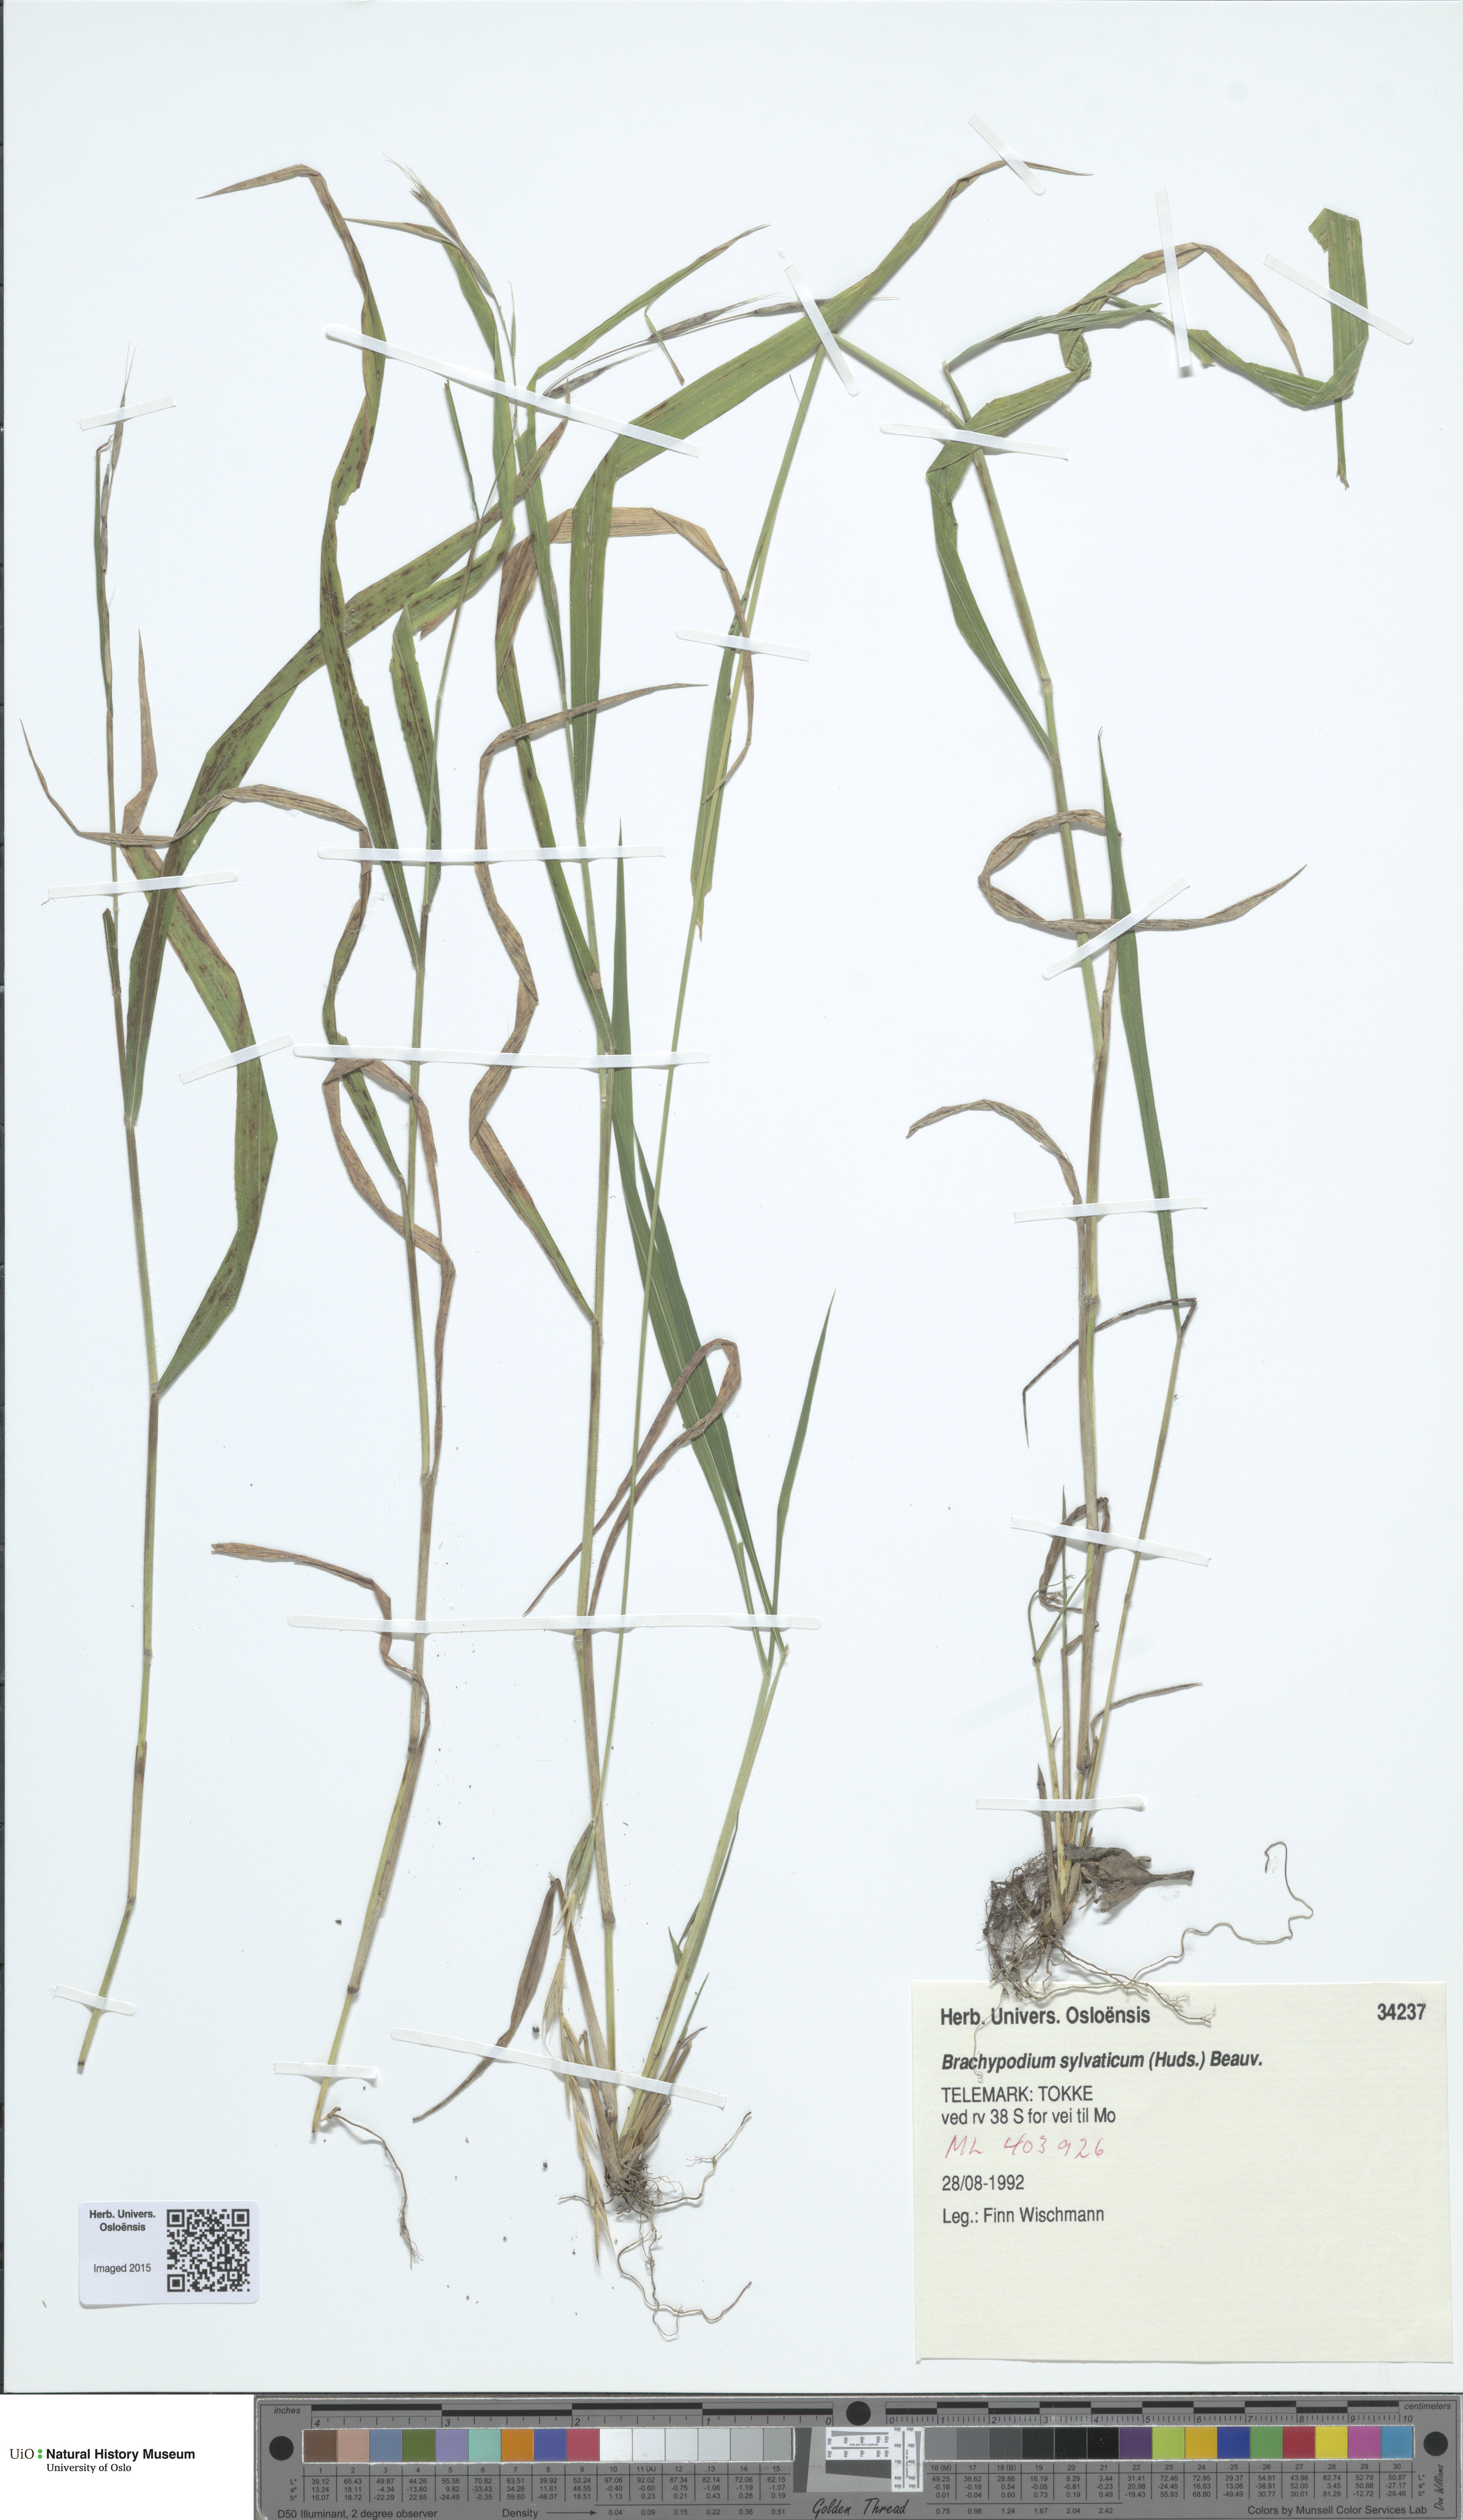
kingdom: Plantae
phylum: Tracheophyta
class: Liliopsida
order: Poales
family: Poaceae
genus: Brachypodium
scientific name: Brachypodium sylvaticum
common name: False-brome
